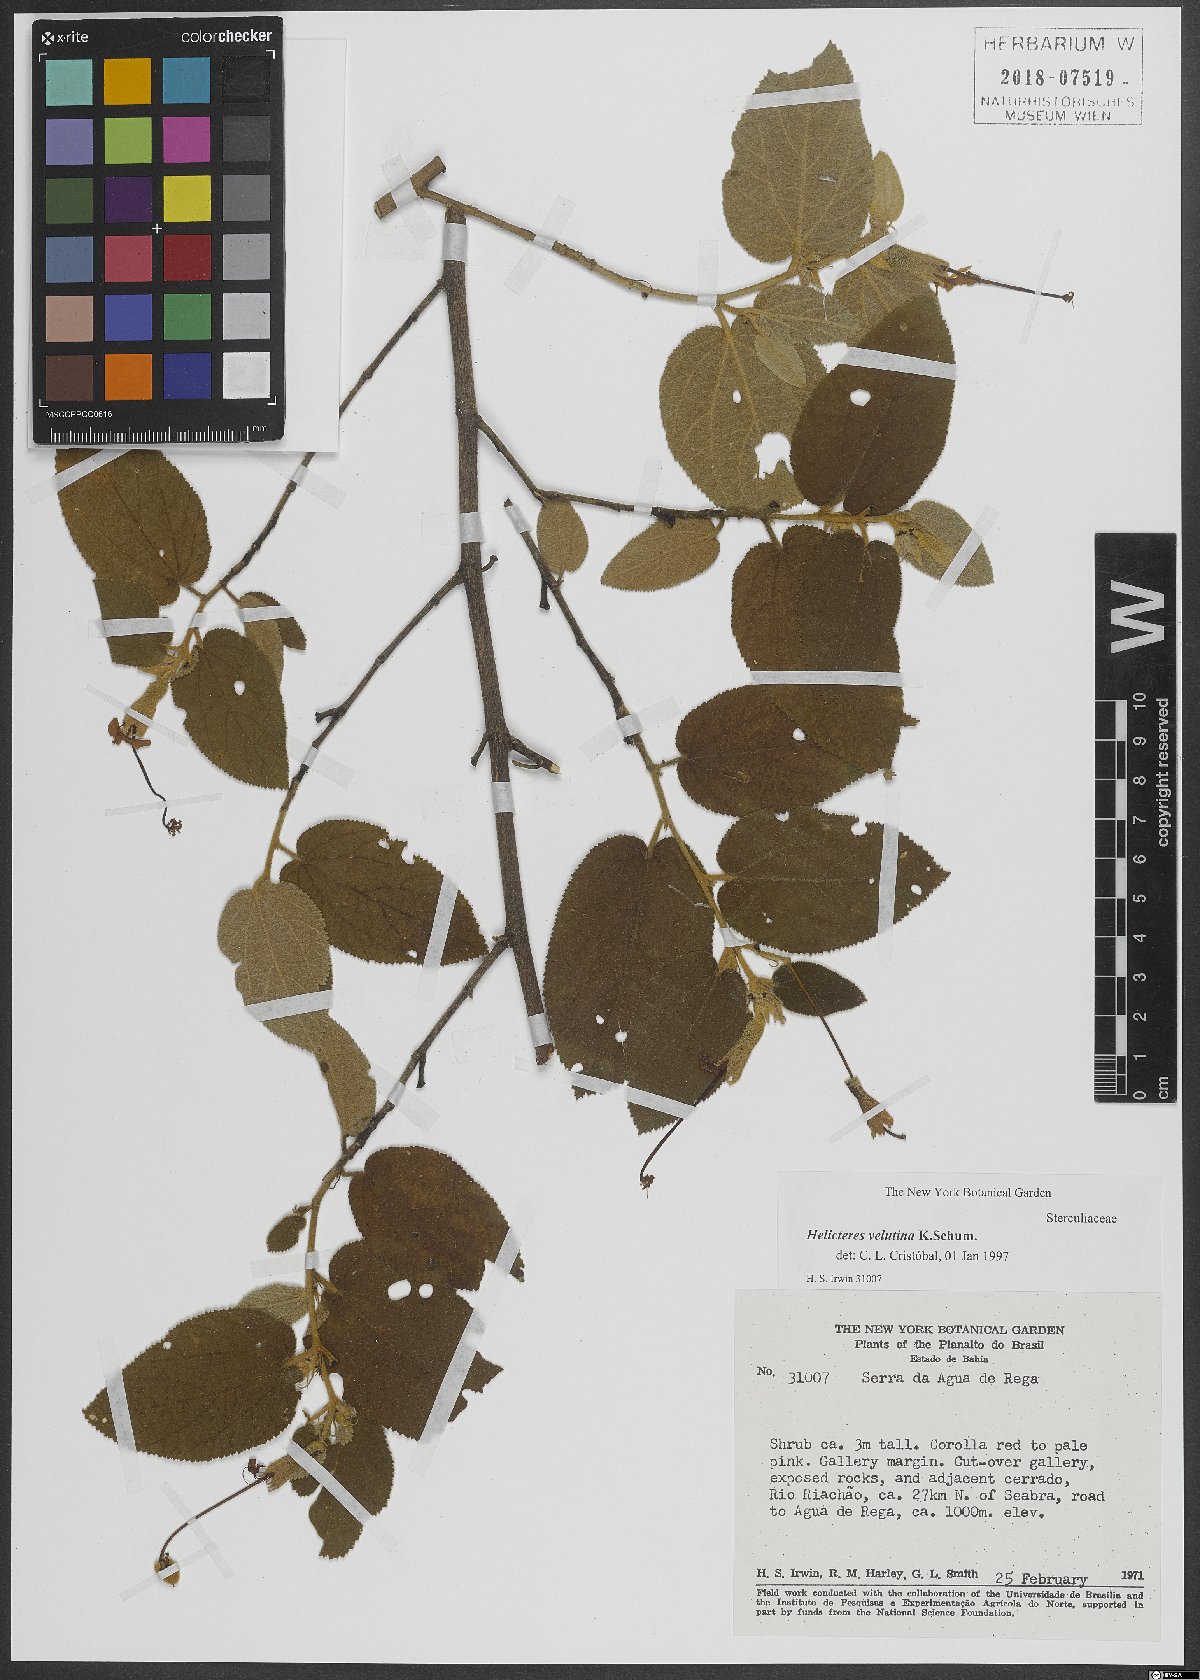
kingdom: Plantae
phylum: Tracheophyta
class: Magnoliopsida
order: Malvales
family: Malvaceae
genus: Helicteres
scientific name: Helicteres velutina
